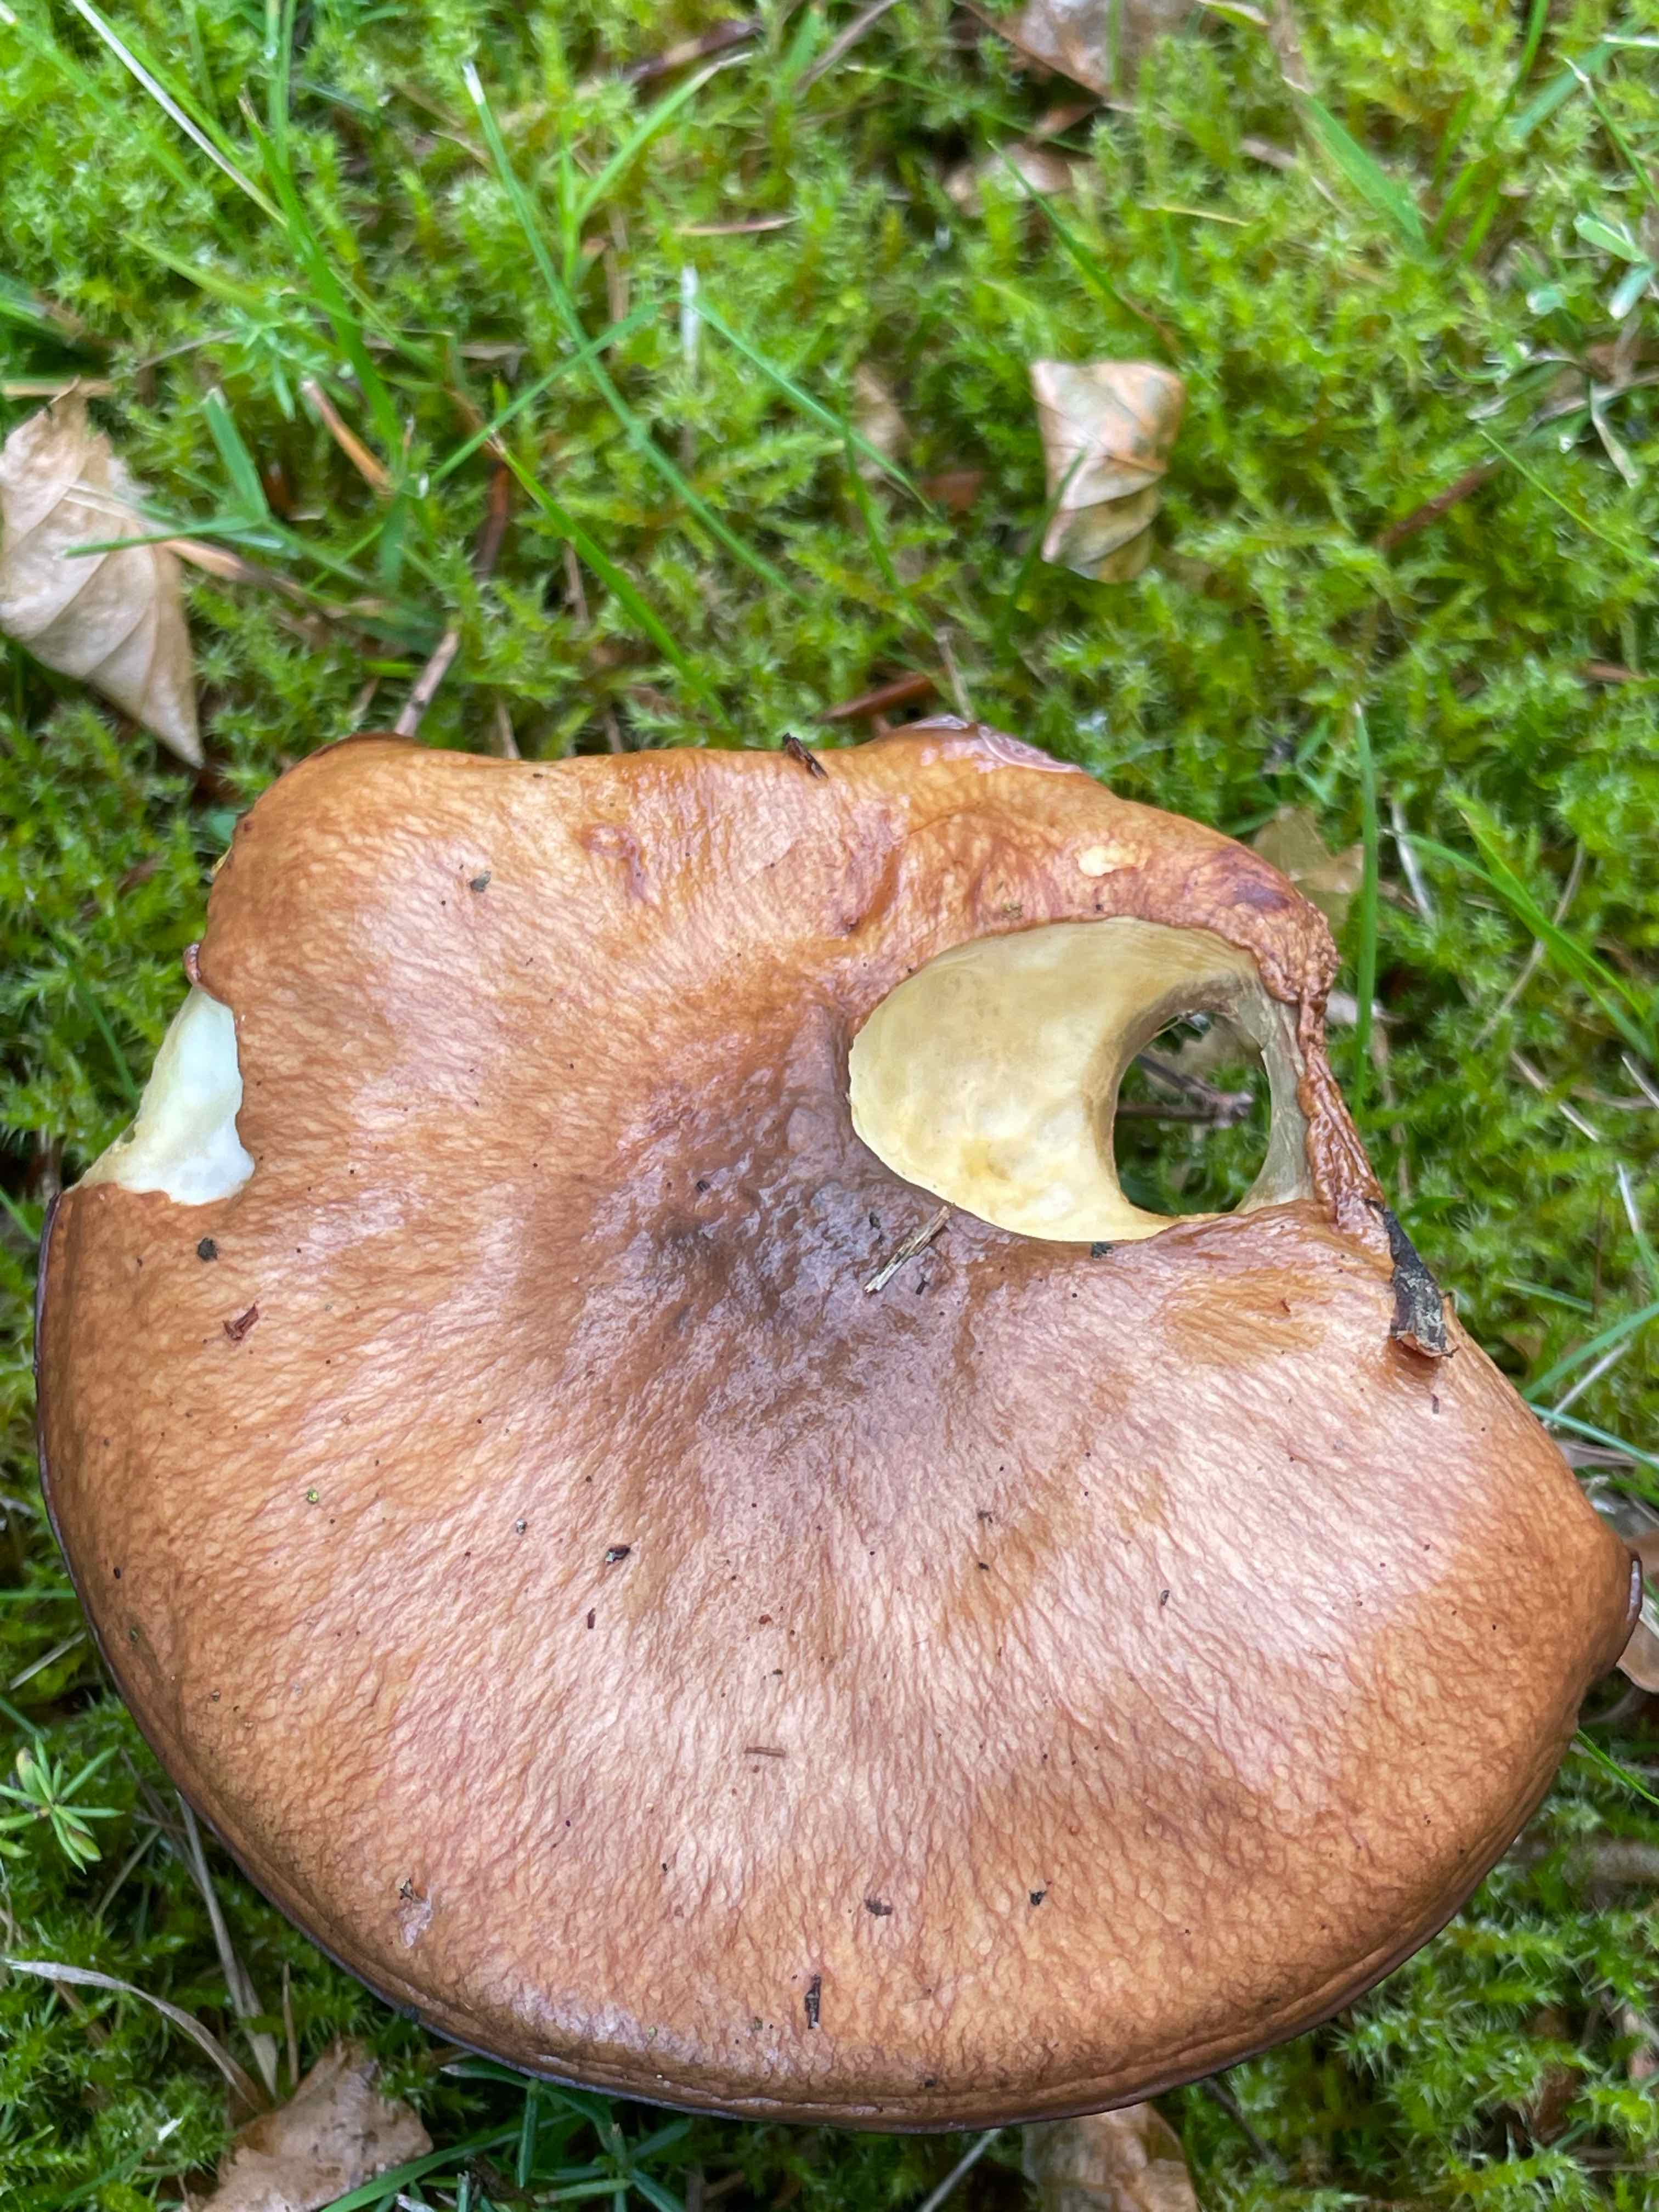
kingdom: Fungi
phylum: Basidiomycota
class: Agaricomycetes
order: Boletales
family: Suillaceae
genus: Suillus
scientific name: Suillus luteus
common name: brungul slimrørhat
